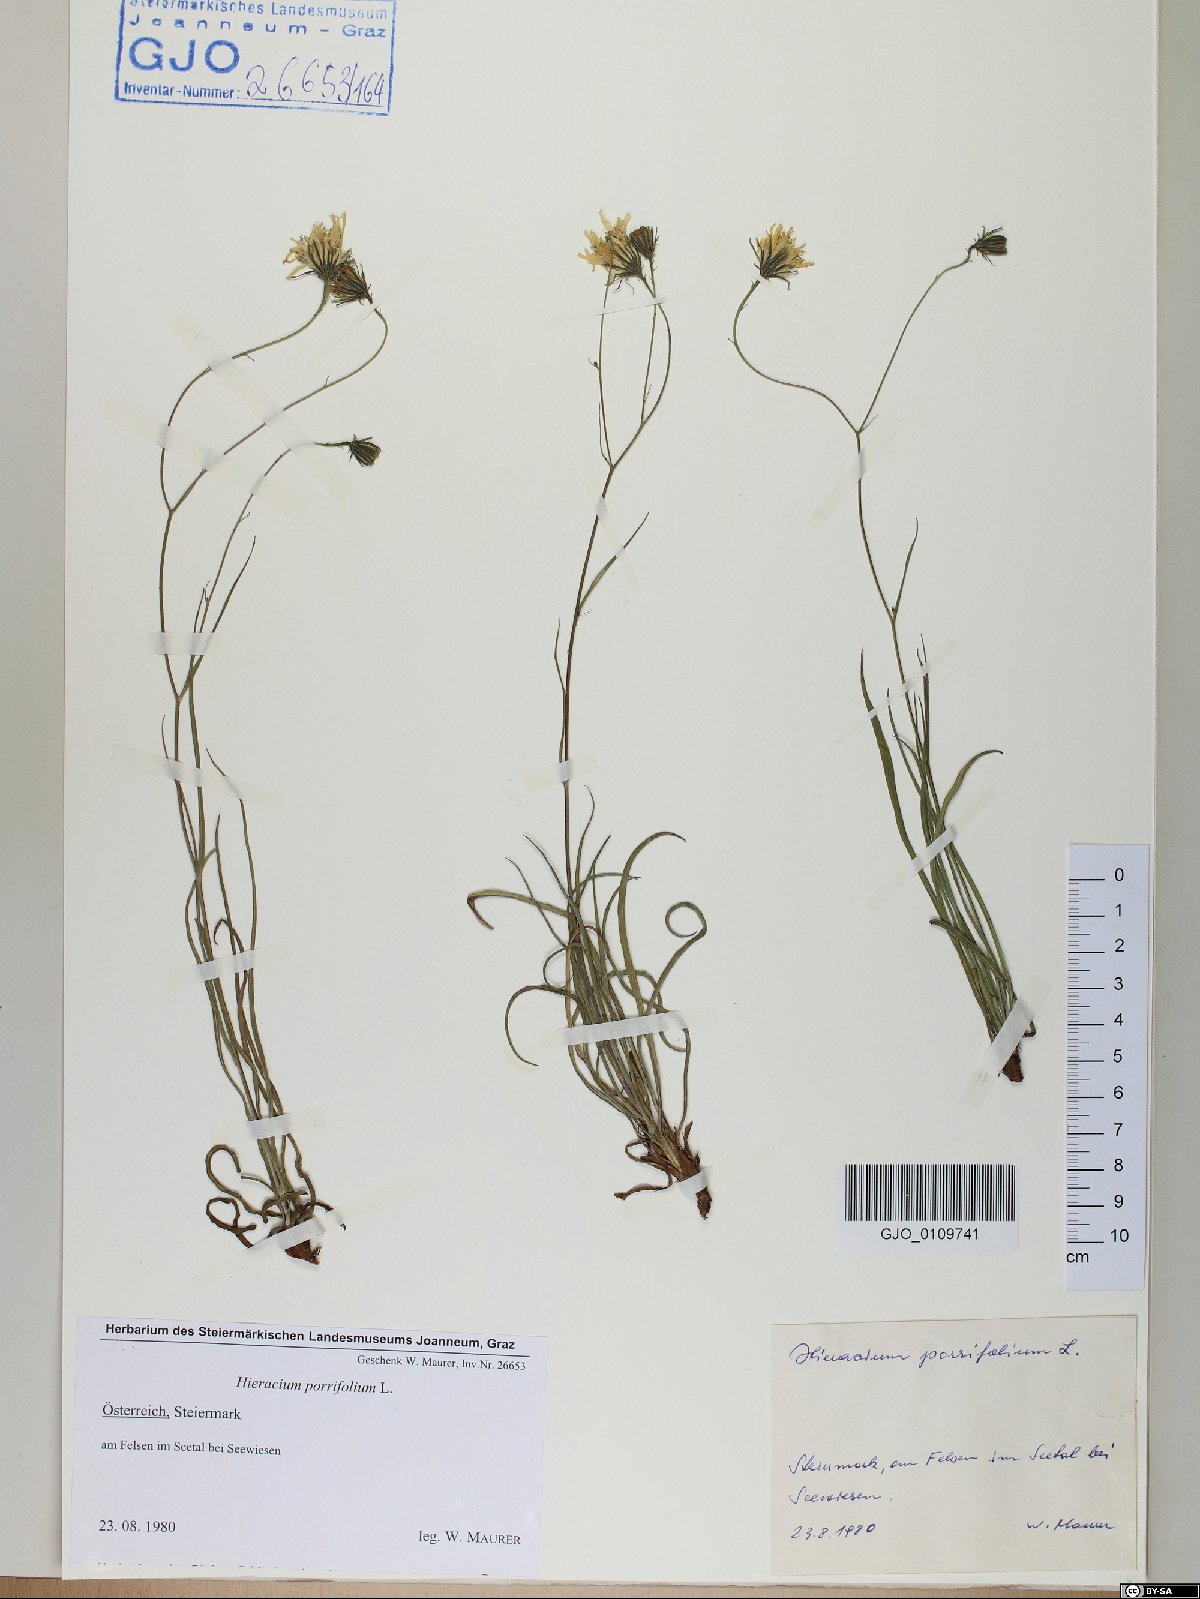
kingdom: Plantae
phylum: Tracheophyta
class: Magnoliopsida
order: Asterales
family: Asteraceae
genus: Hieracium
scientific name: Hieracium porrifolium
